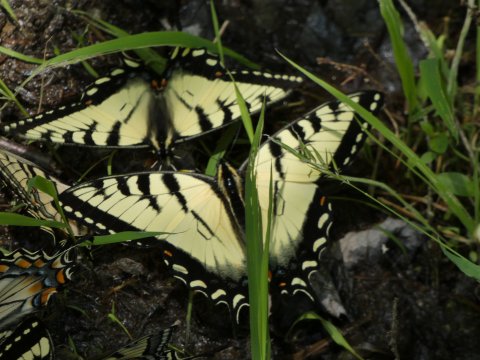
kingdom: Animalia
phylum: Arthropoda
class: Insecta
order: Lepidoptera
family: Papilionidae
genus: Pterourus
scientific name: Pterourus glaucus
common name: Eastern Tiger Swallowtail
